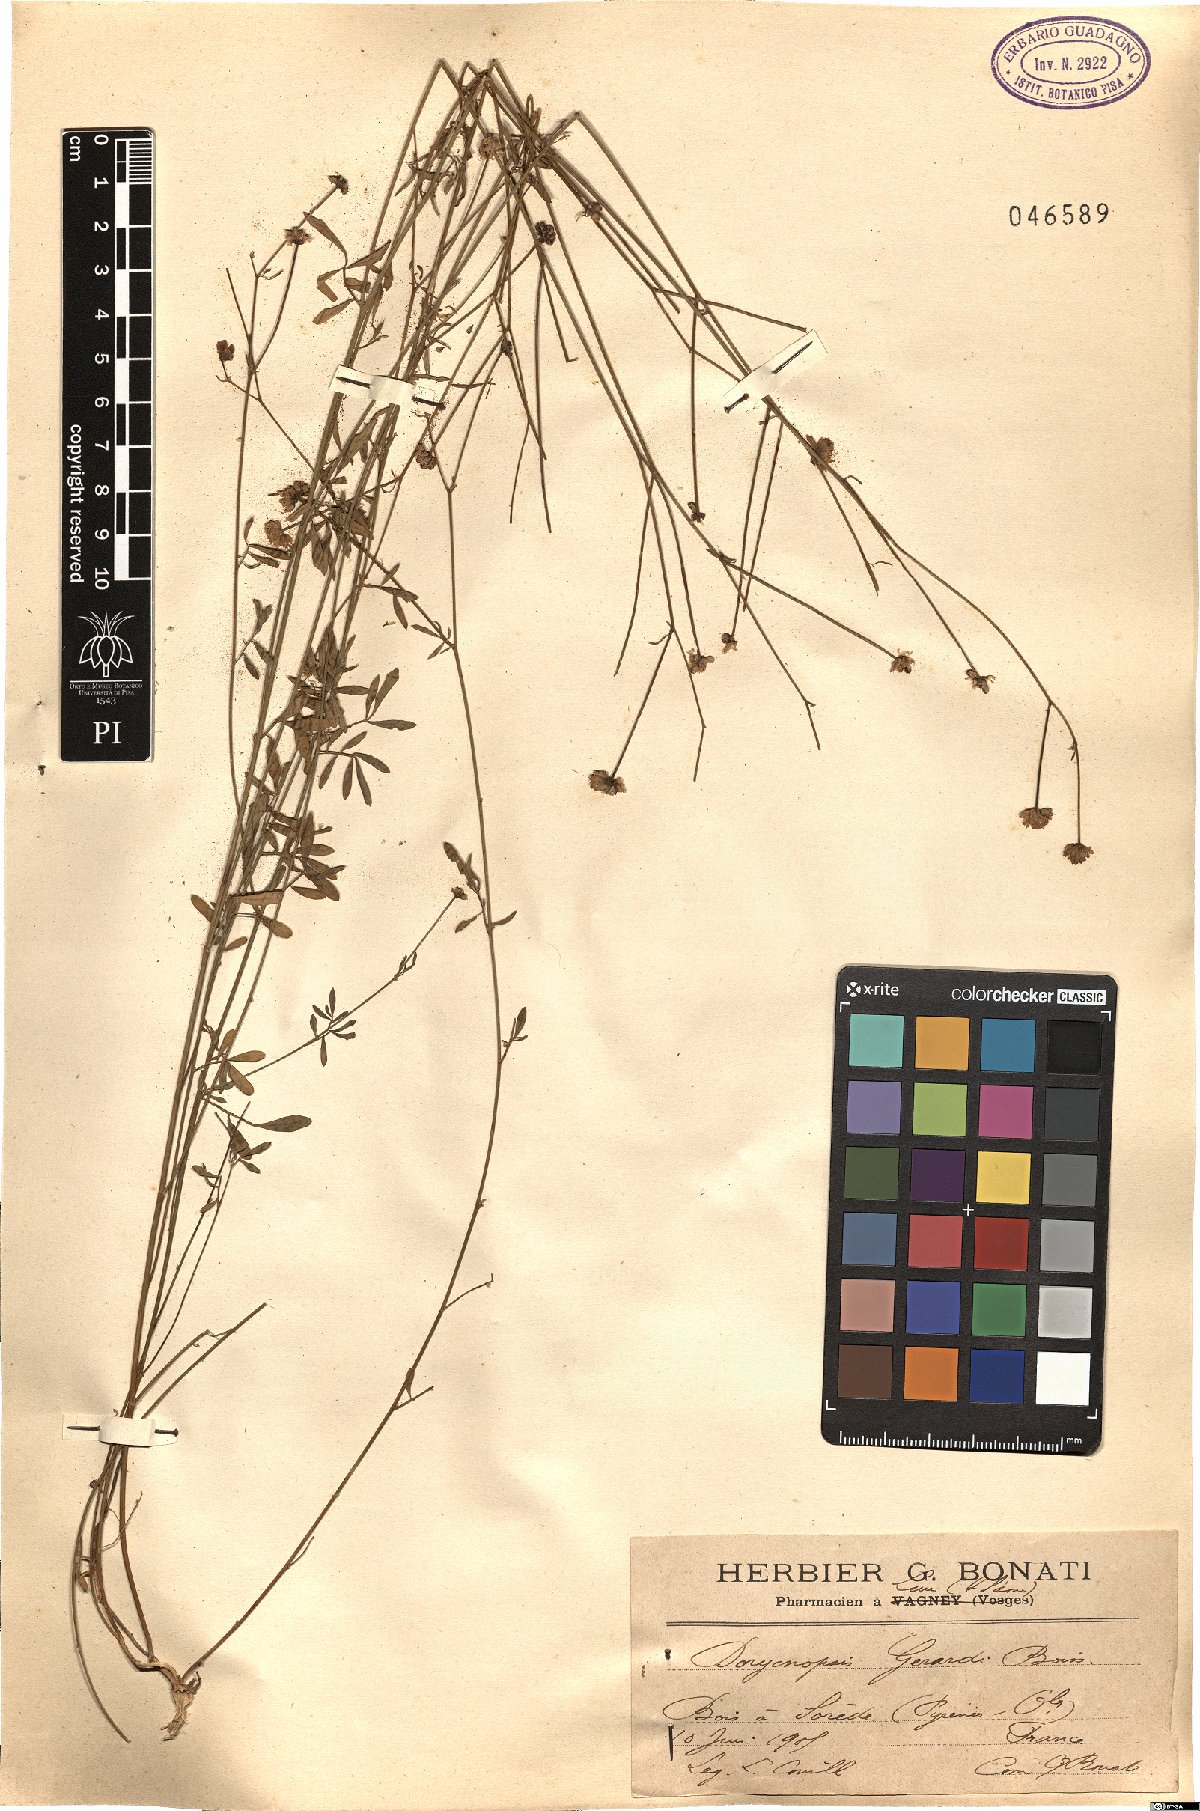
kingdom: Plantae
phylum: Tracheophyta
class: Magnoliopsida
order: Fabales
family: Fabaceae
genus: Dorycnopsis
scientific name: Dorycnopsis gerardi
